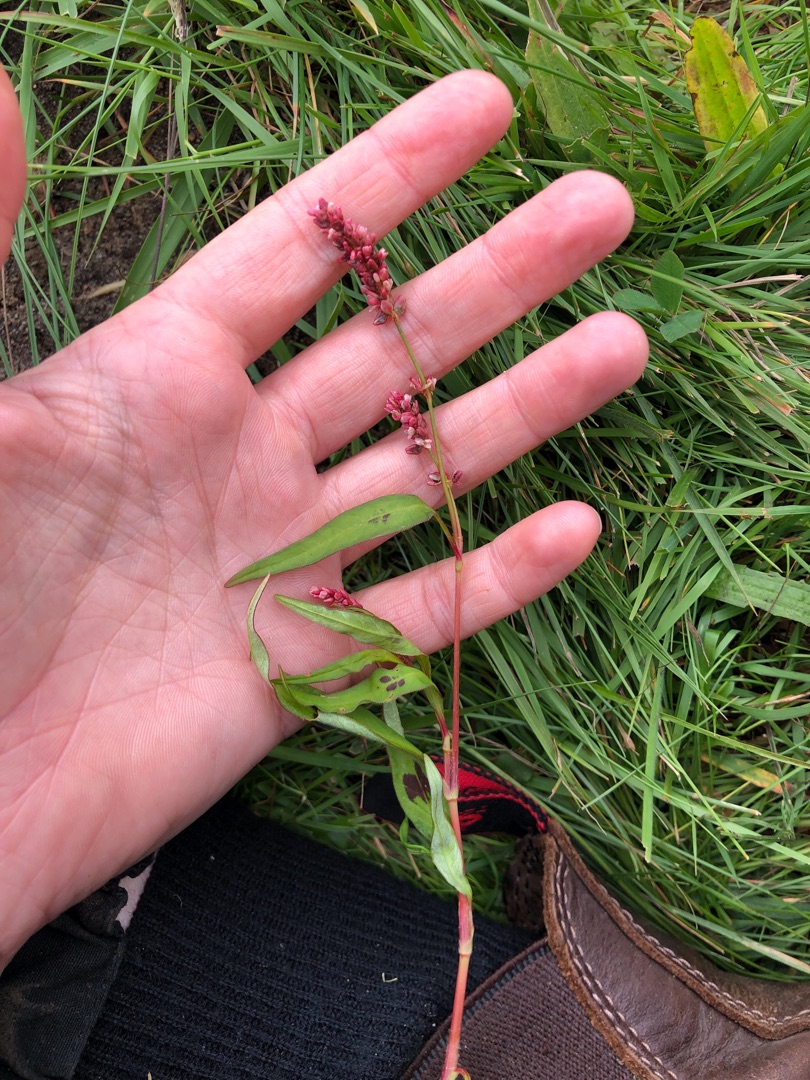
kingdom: Plantae
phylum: Tracheophyta
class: Magnoliopsida
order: Caryophyllales
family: Polygonaceae
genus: Persicaria
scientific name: Persicaria maculosa
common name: Fersken-pileurt
